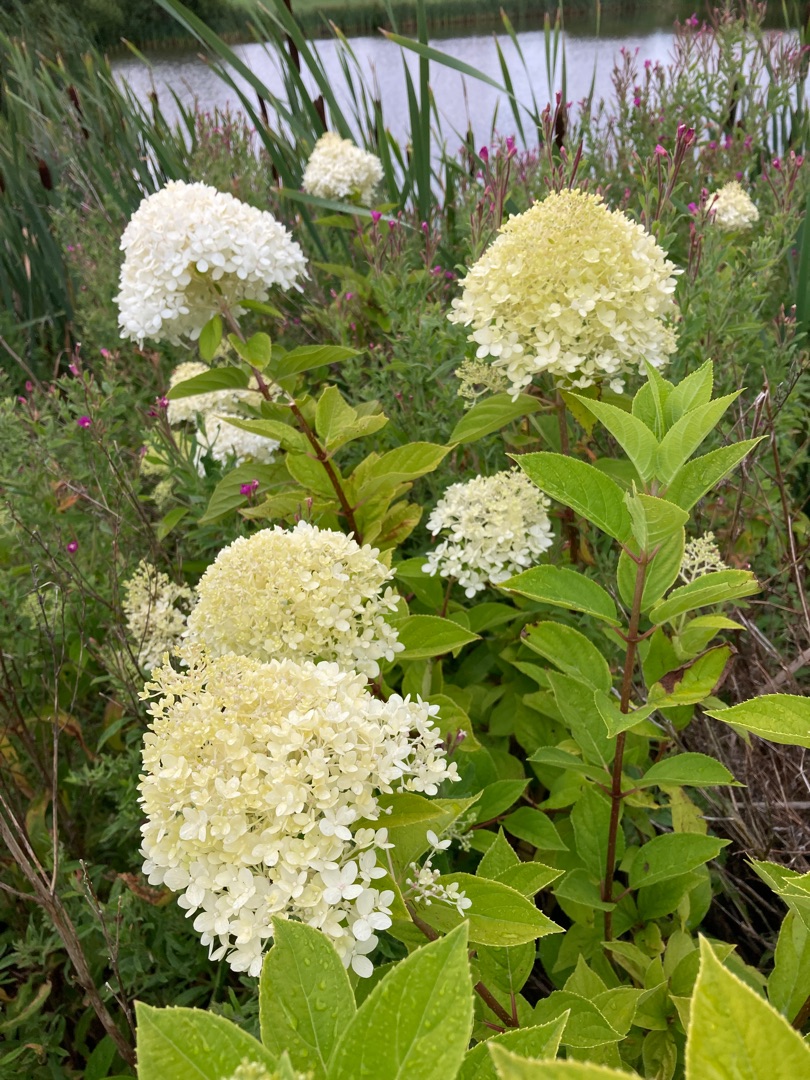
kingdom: Plantae
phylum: Tracheophyta
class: Magnoliopsida
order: Cornales
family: Hydrangeaceae
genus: Hydrangea
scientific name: Hydrangea paniculata
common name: Have-hortensie
